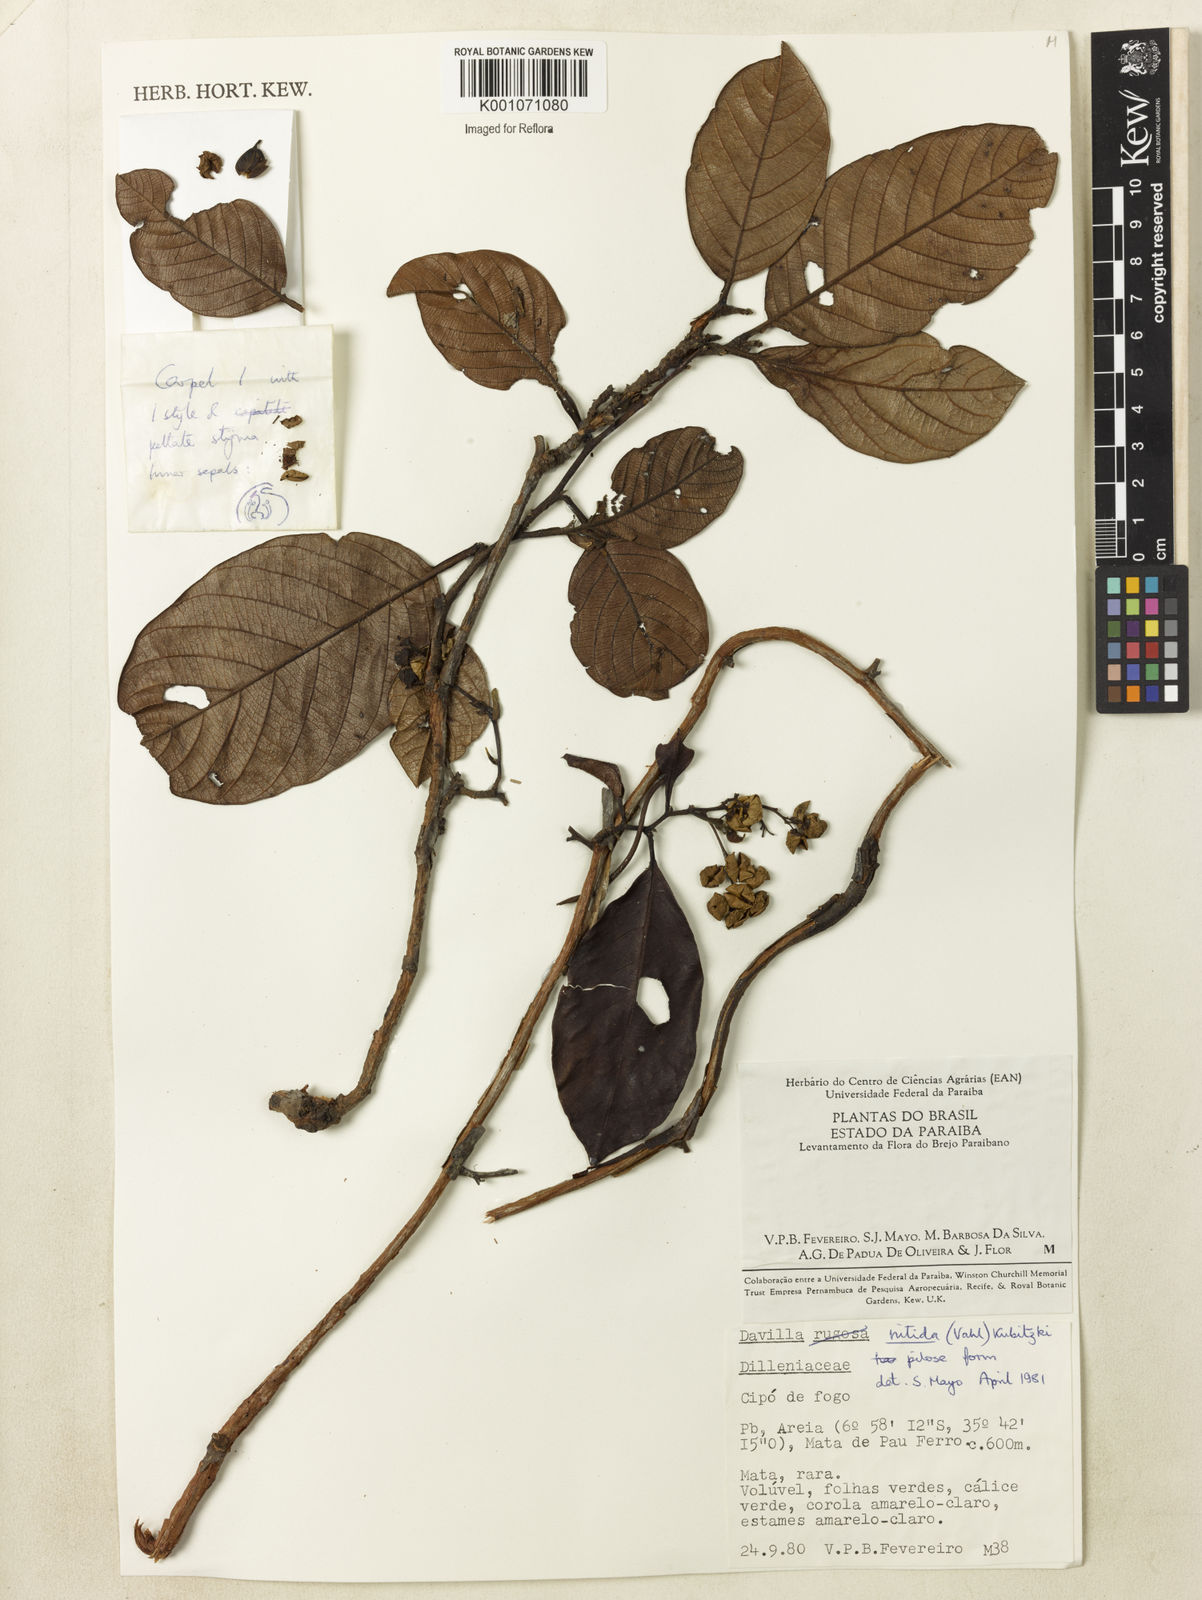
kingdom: Plantae
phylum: Tracheophyta
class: Magnoliopsida
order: Dilleniales
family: Dilleniaceae
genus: Davilla
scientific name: Davilla nitida
